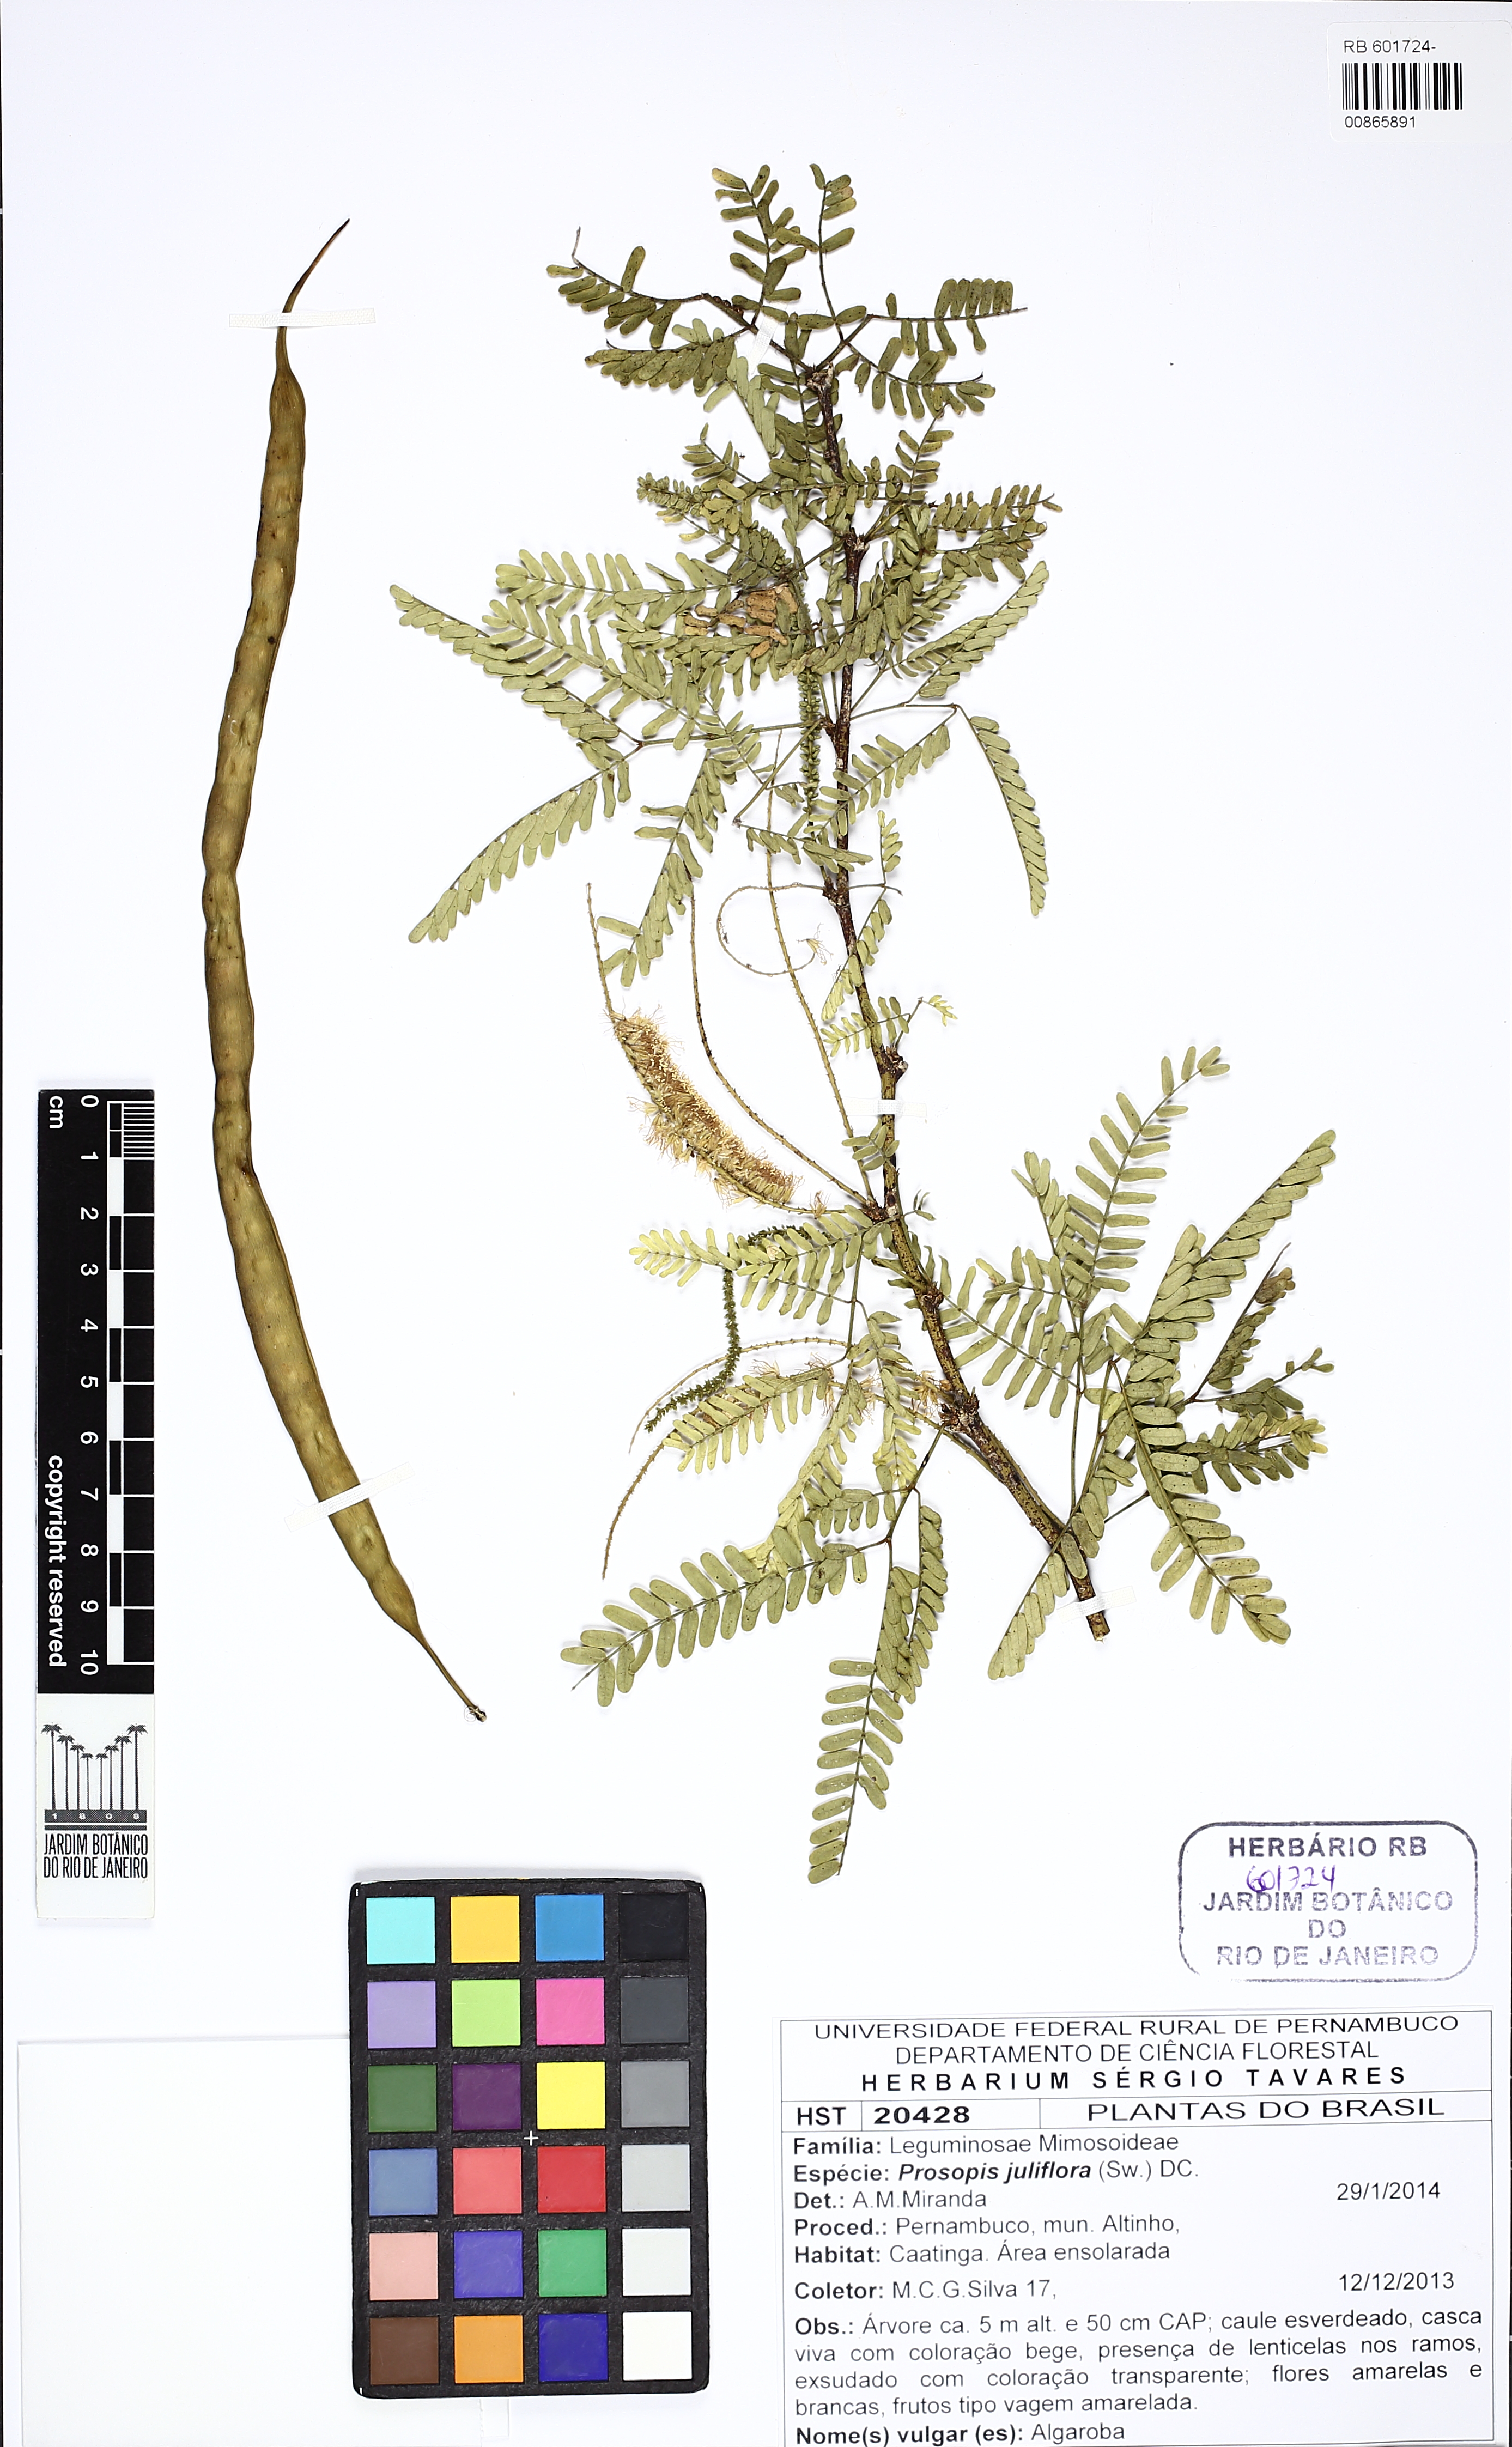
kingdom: Plantae
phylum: Tracheophyta
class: Magnoliopsida
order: Fabales
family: Fabaceae
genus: Prosopis
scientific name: Prosopis juliflora
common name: Mesquite
